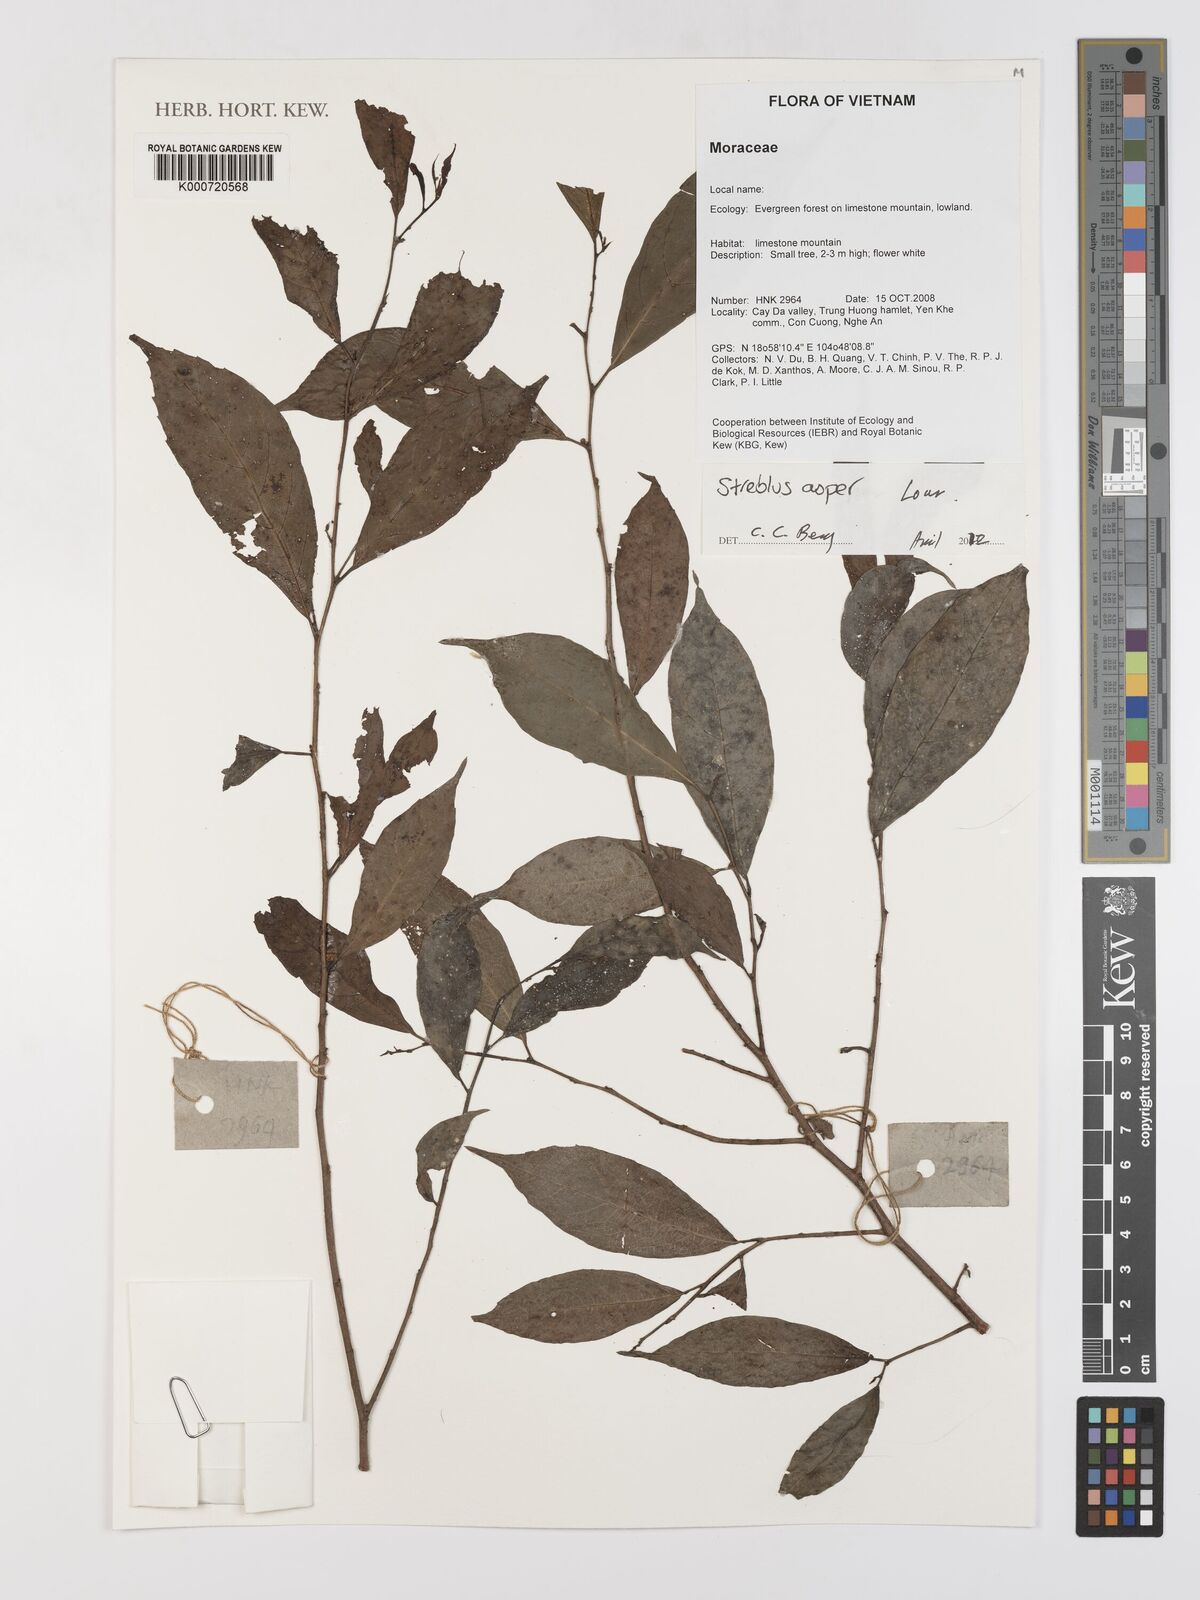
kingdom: Plantae
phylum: Tracheophyta
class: Magnoliopsida
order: Rosales
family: Moraceae
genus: Streblus
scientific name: Streblus asper
